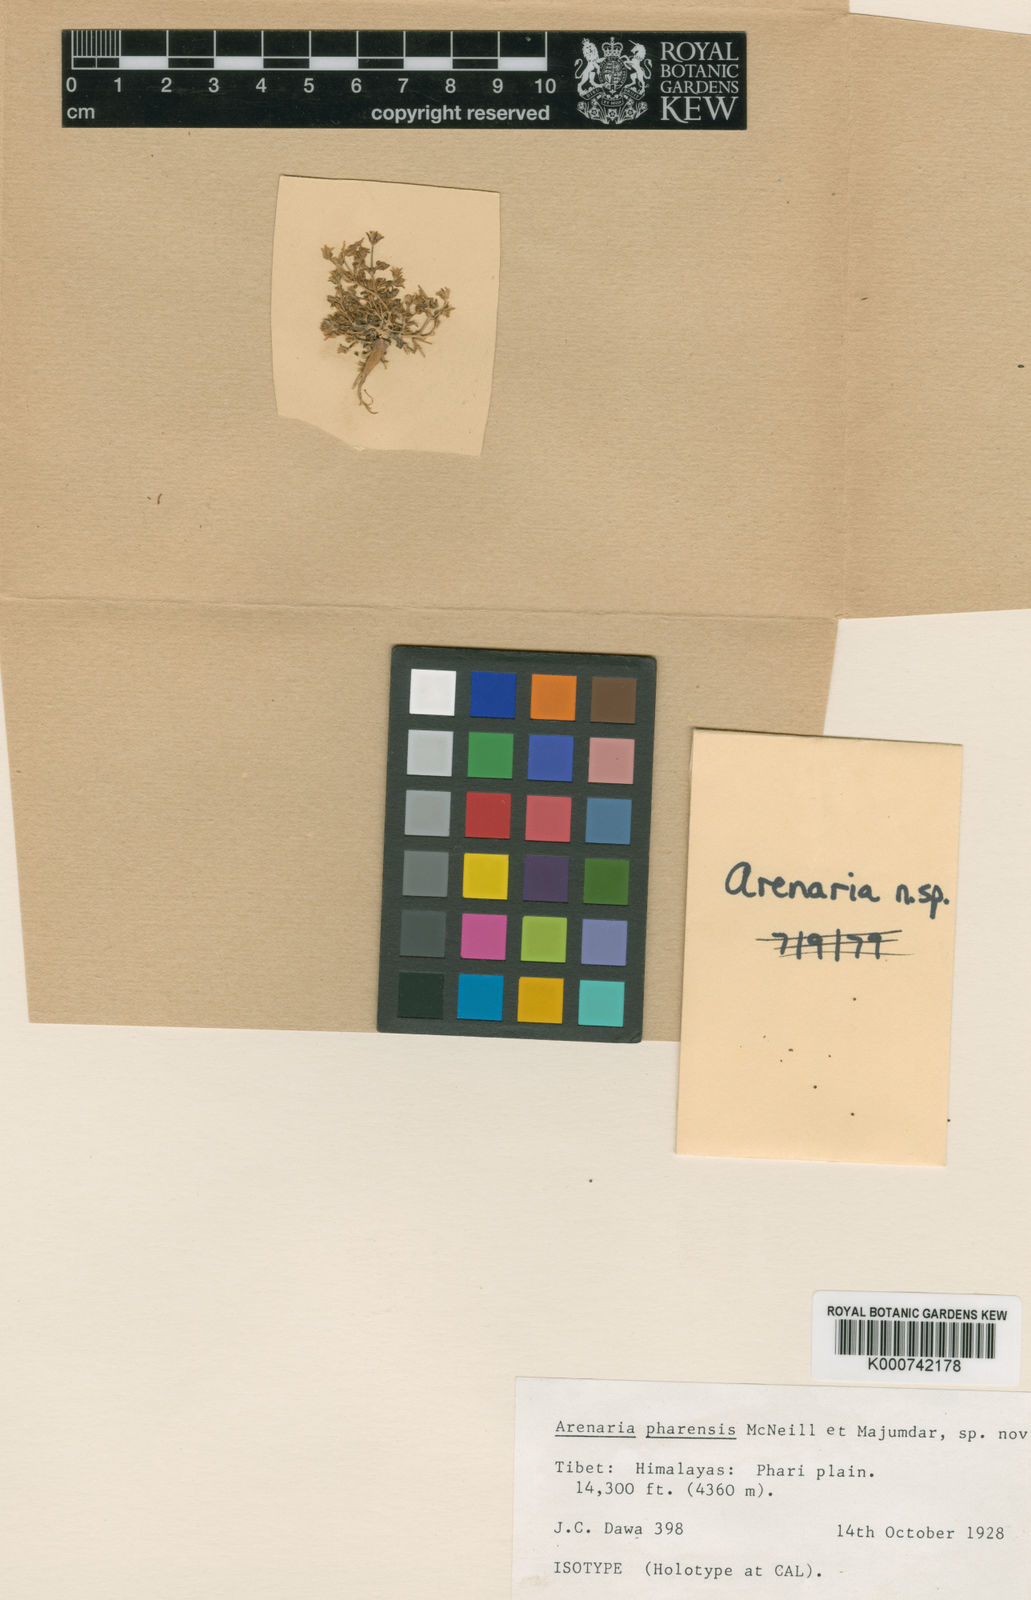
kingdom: Plantae
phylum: Tracheophyta
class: Magnoliopsida
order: Caryophyllales
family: Caryophyllaceae
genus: Odontostemma
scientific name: Odontostemma pharense
